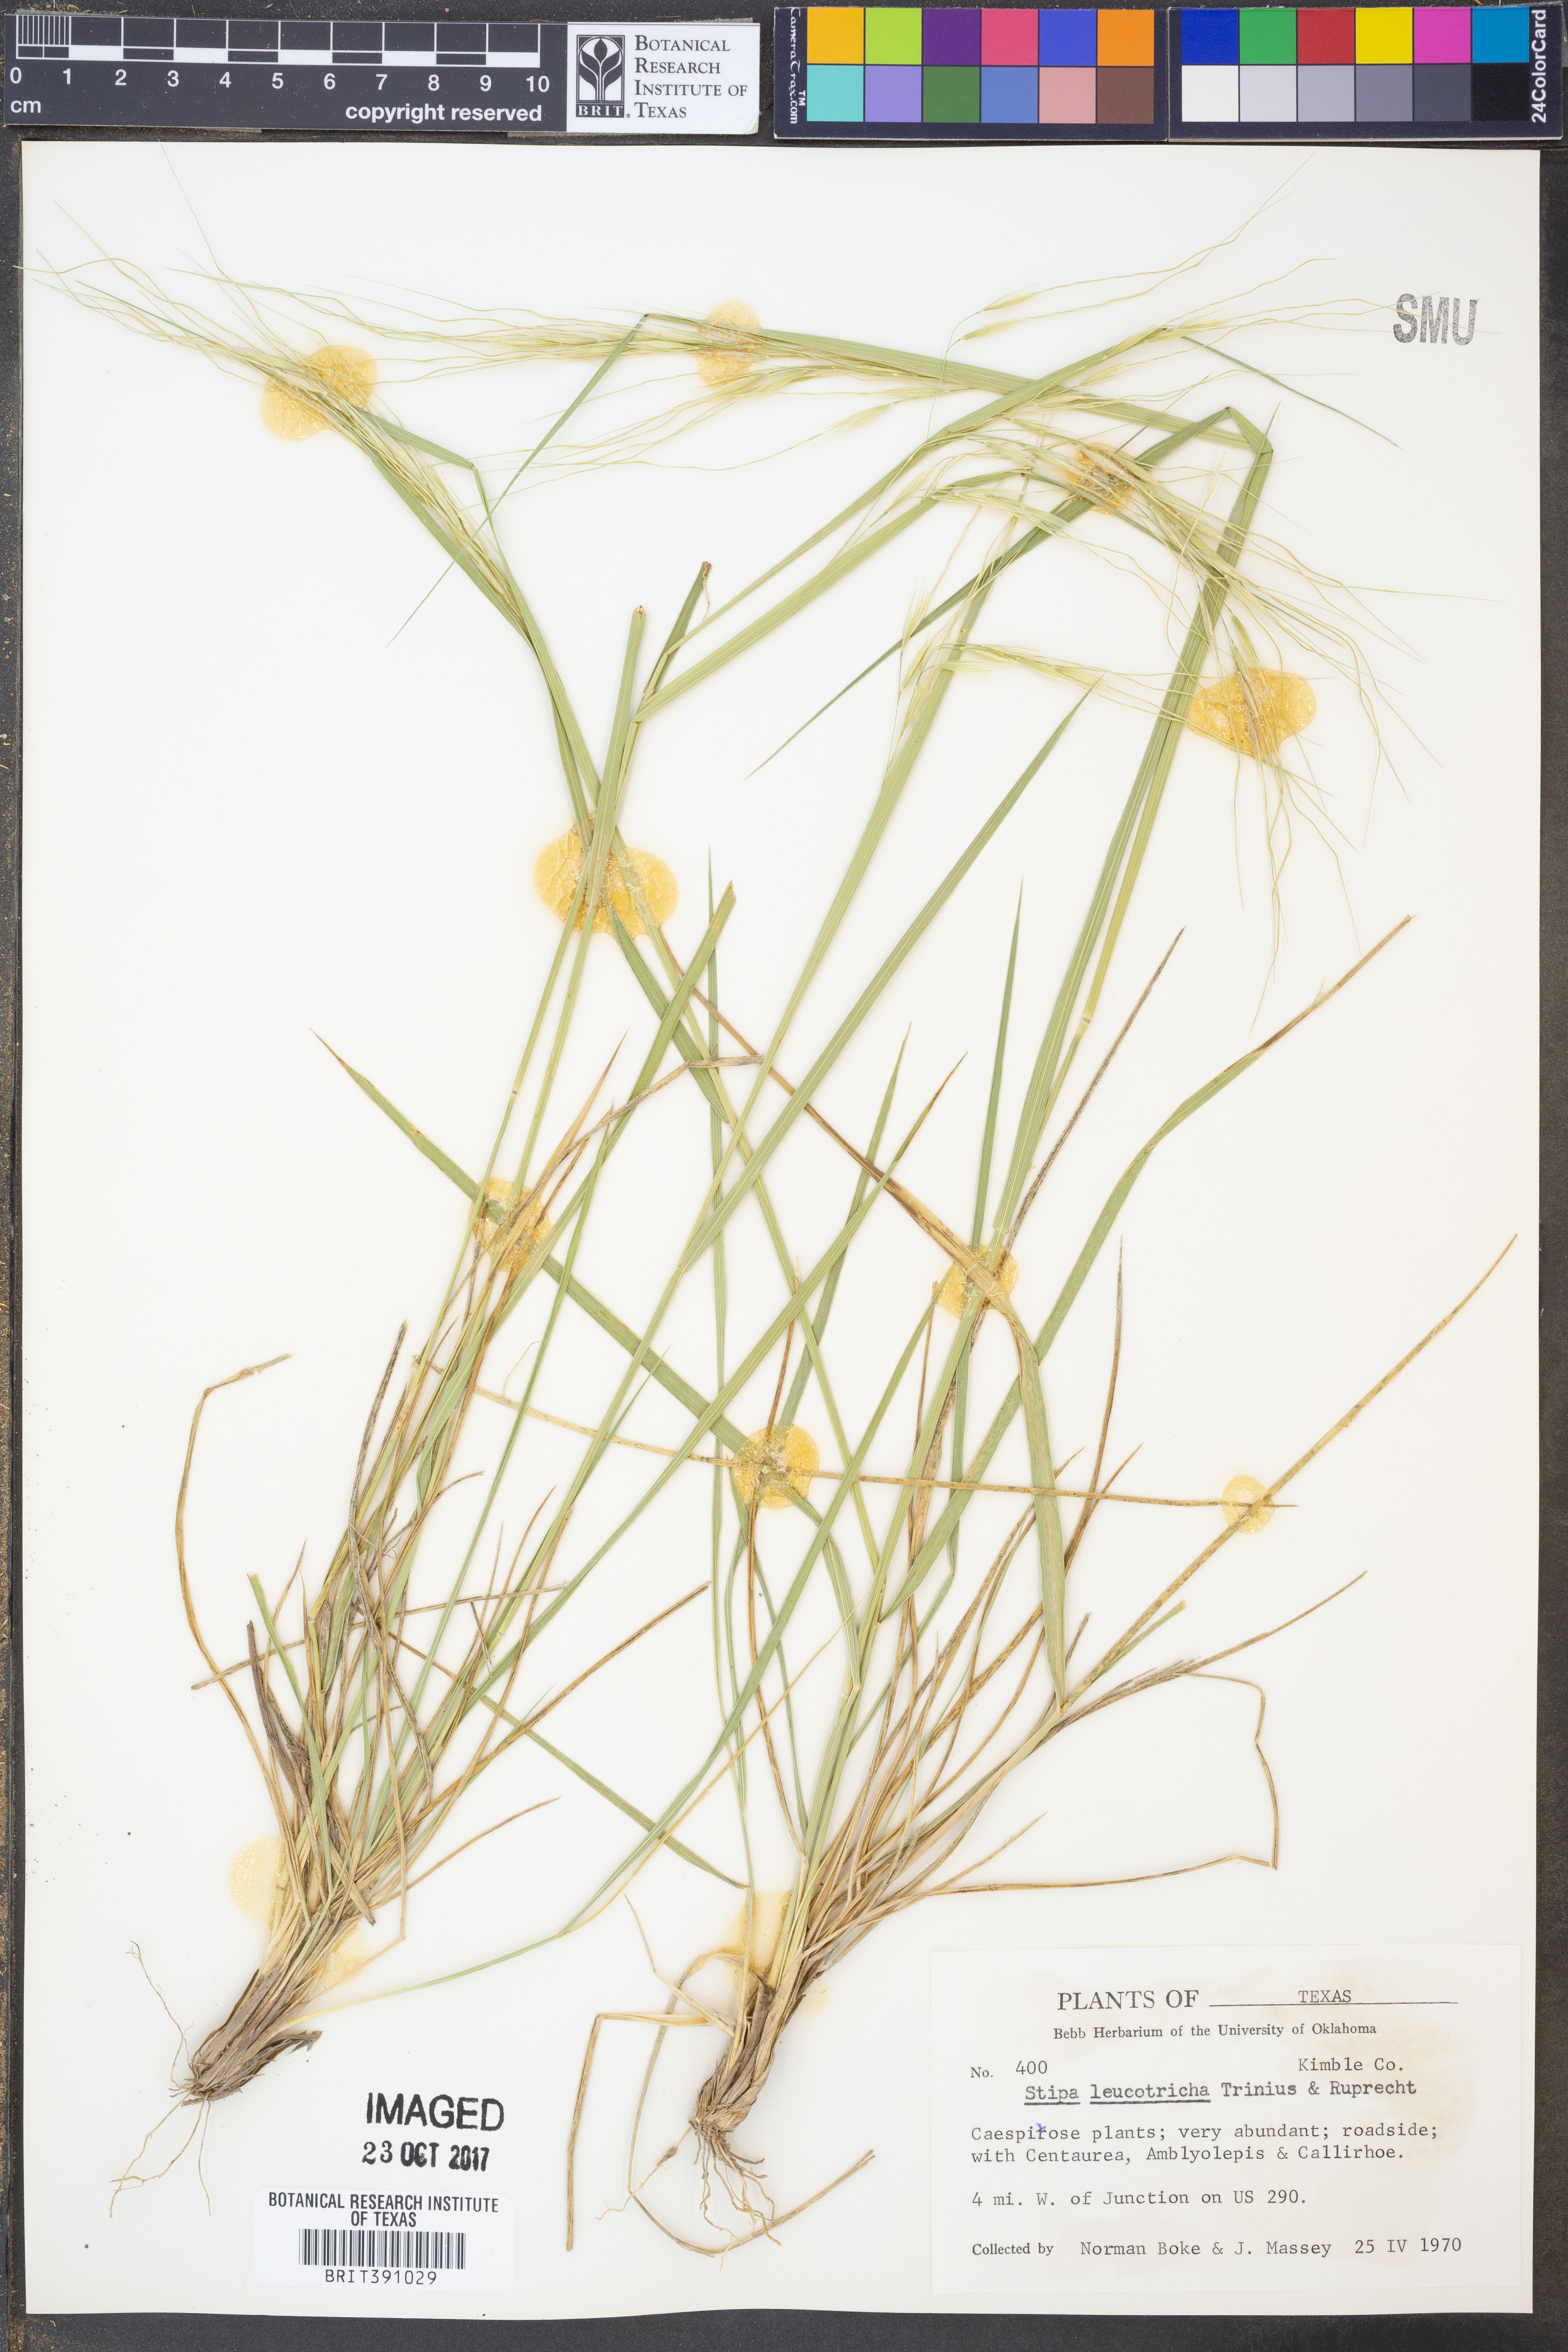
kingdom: Plantae
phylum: Tracheophyta
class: Liliopsida
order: Poales
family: Poaceae
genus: Nassella
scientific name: Nassella leucotricha
